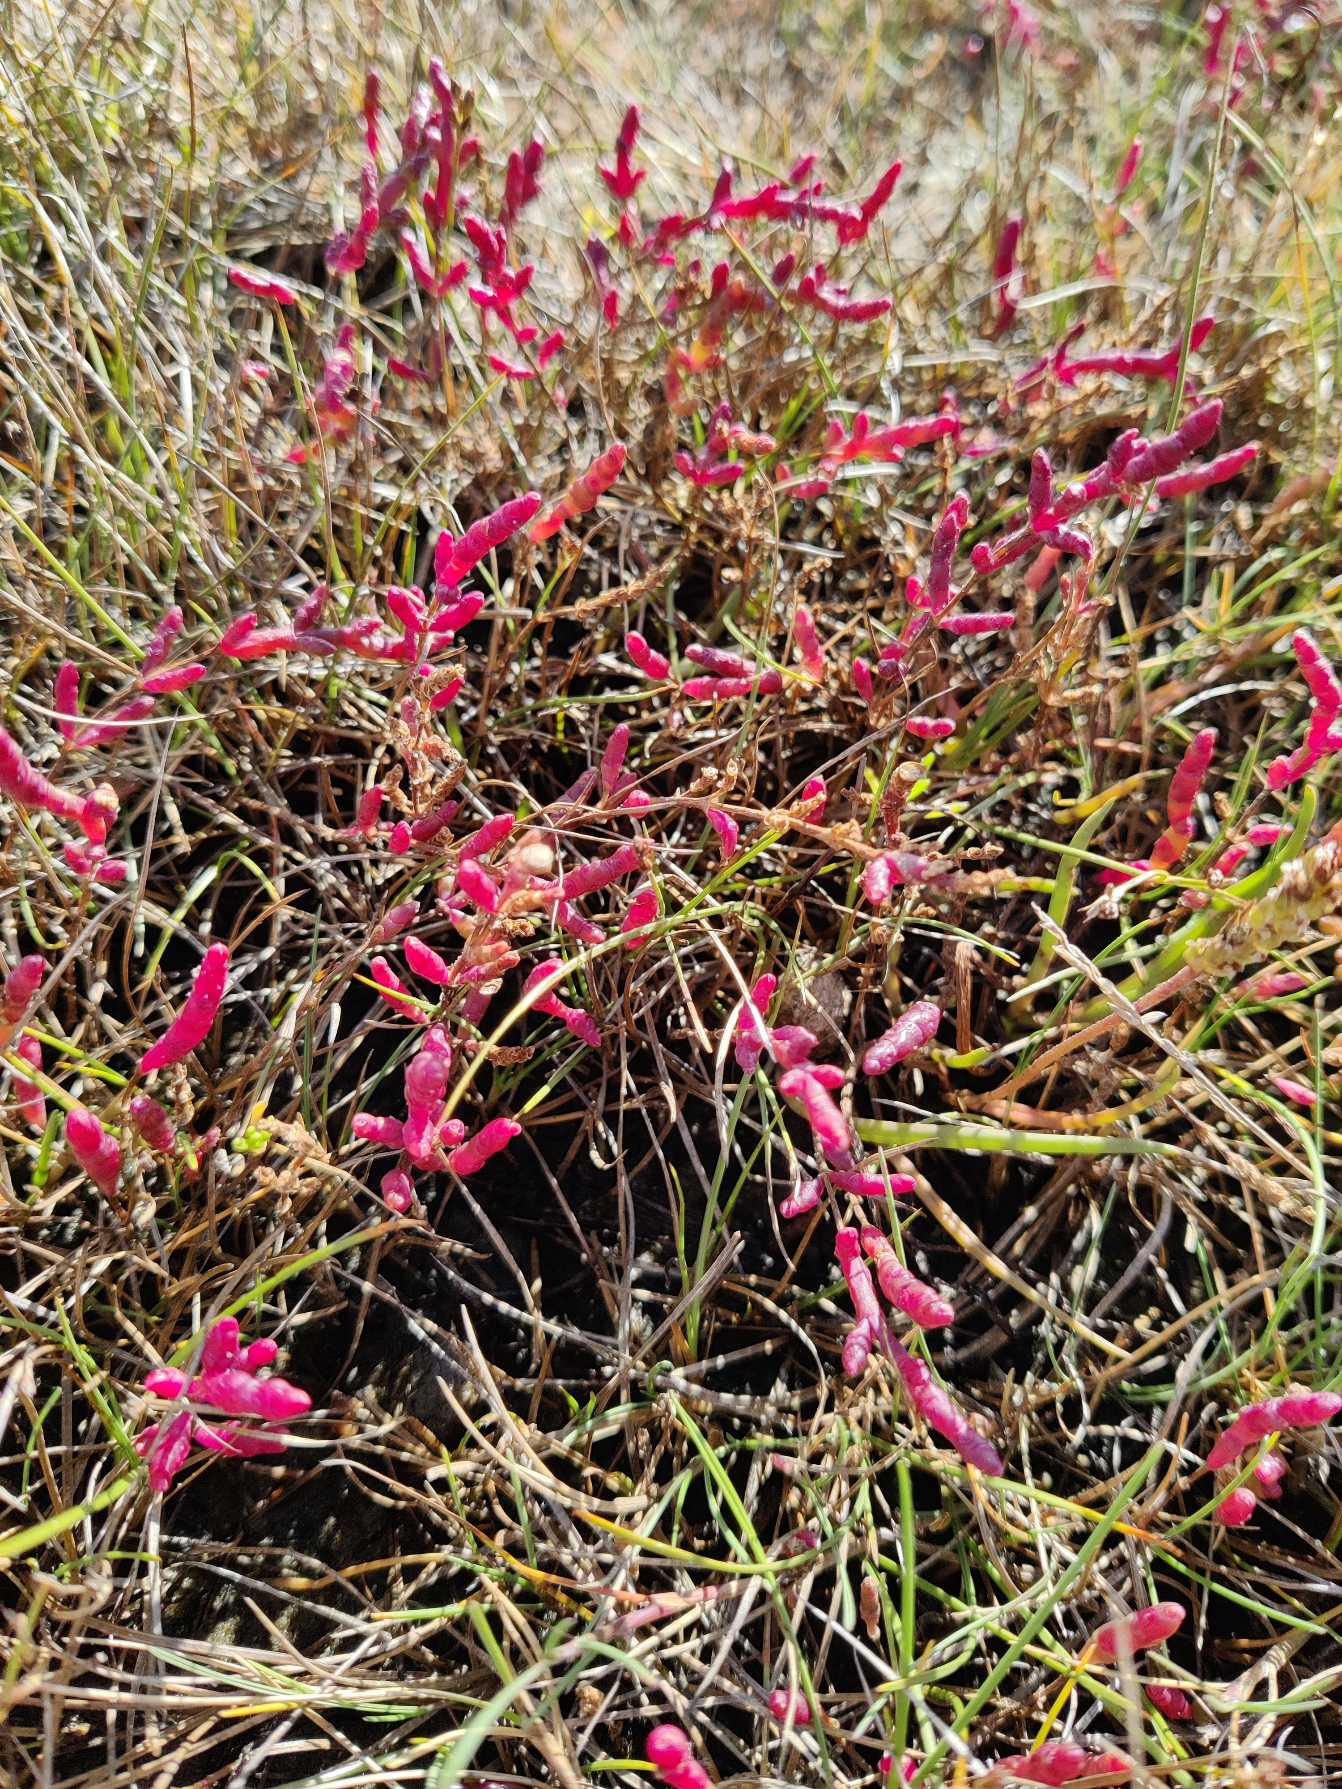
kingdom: Plantae
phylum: Tracheophyta
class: Magnoliopsida
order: Caryophyllales
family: Amaranthaceae
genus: Salicornia
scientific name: Salicornia europaea
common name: Almindelig salturt
